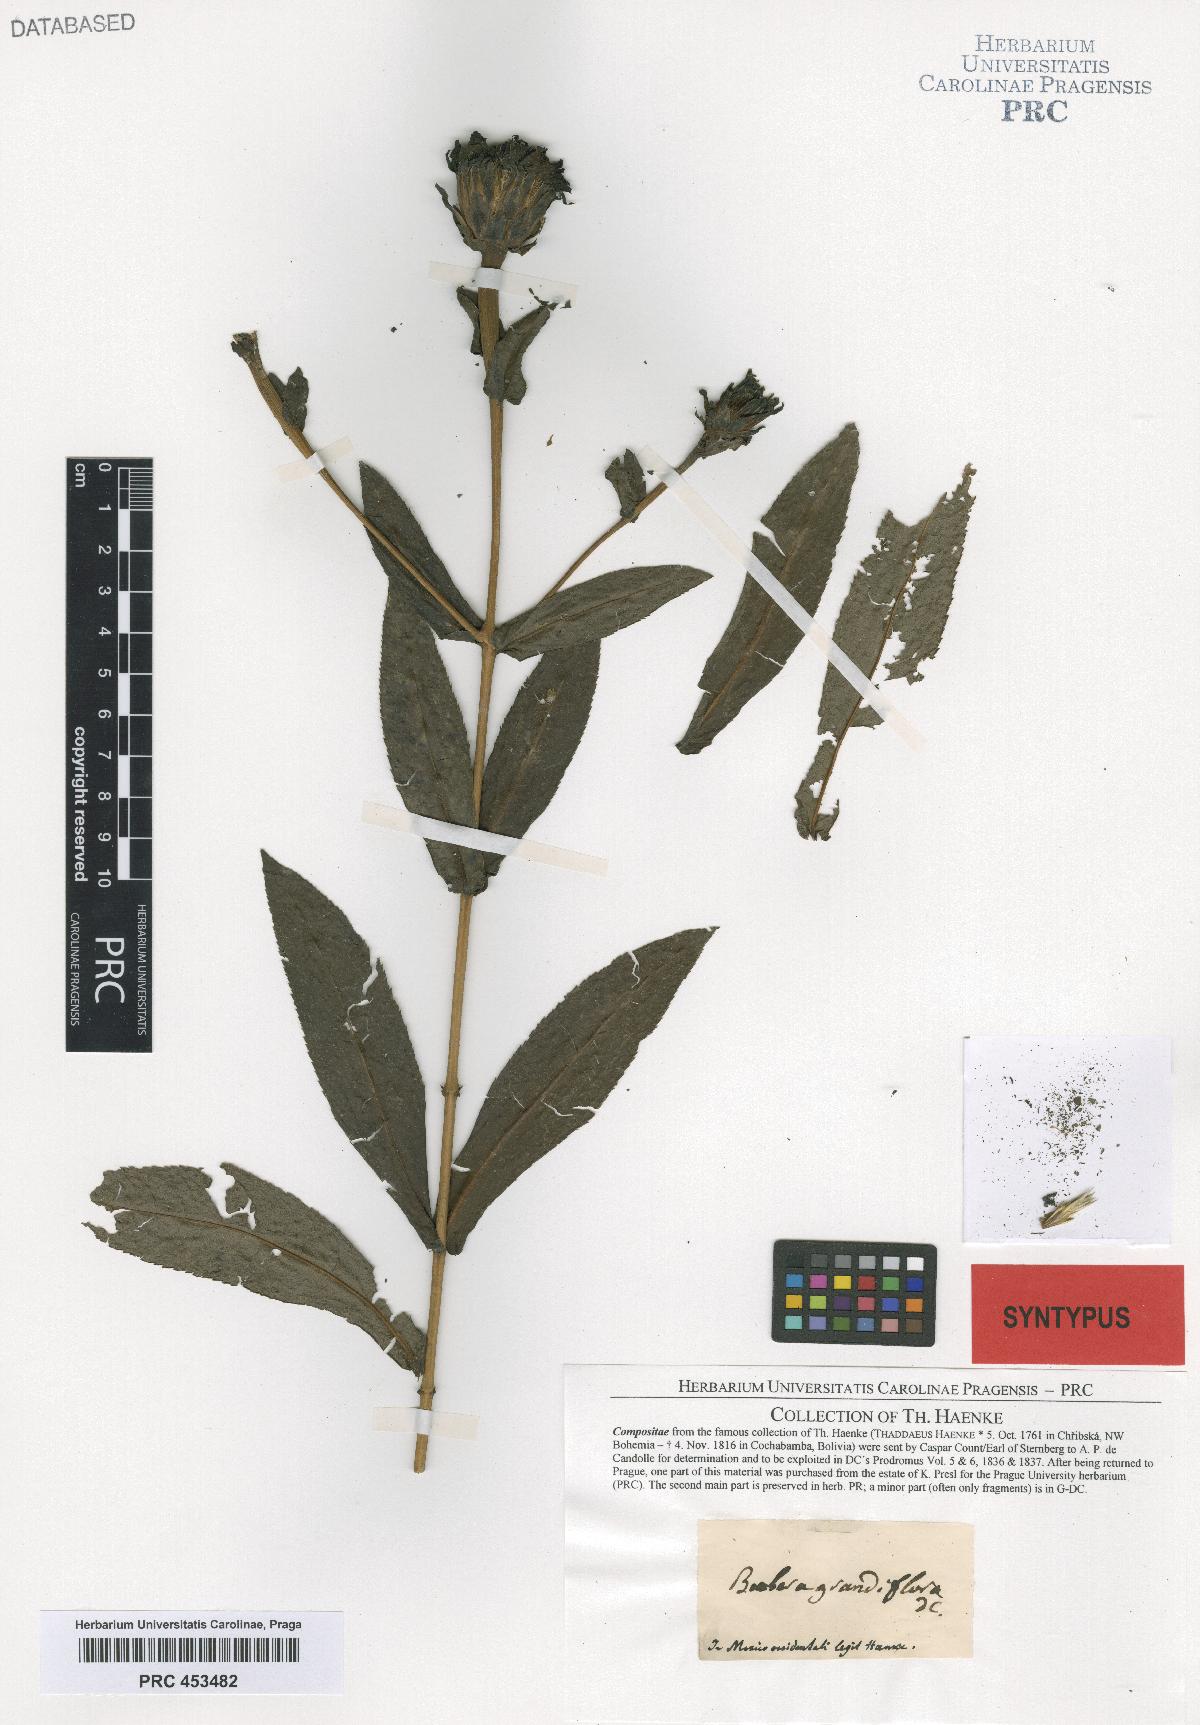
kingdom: Plantae
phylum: Tracheophyta
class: Magnoliopsida
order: Asterales
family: Asteraceae
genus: Boeberoides
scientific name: Boeberoides grandiflora
